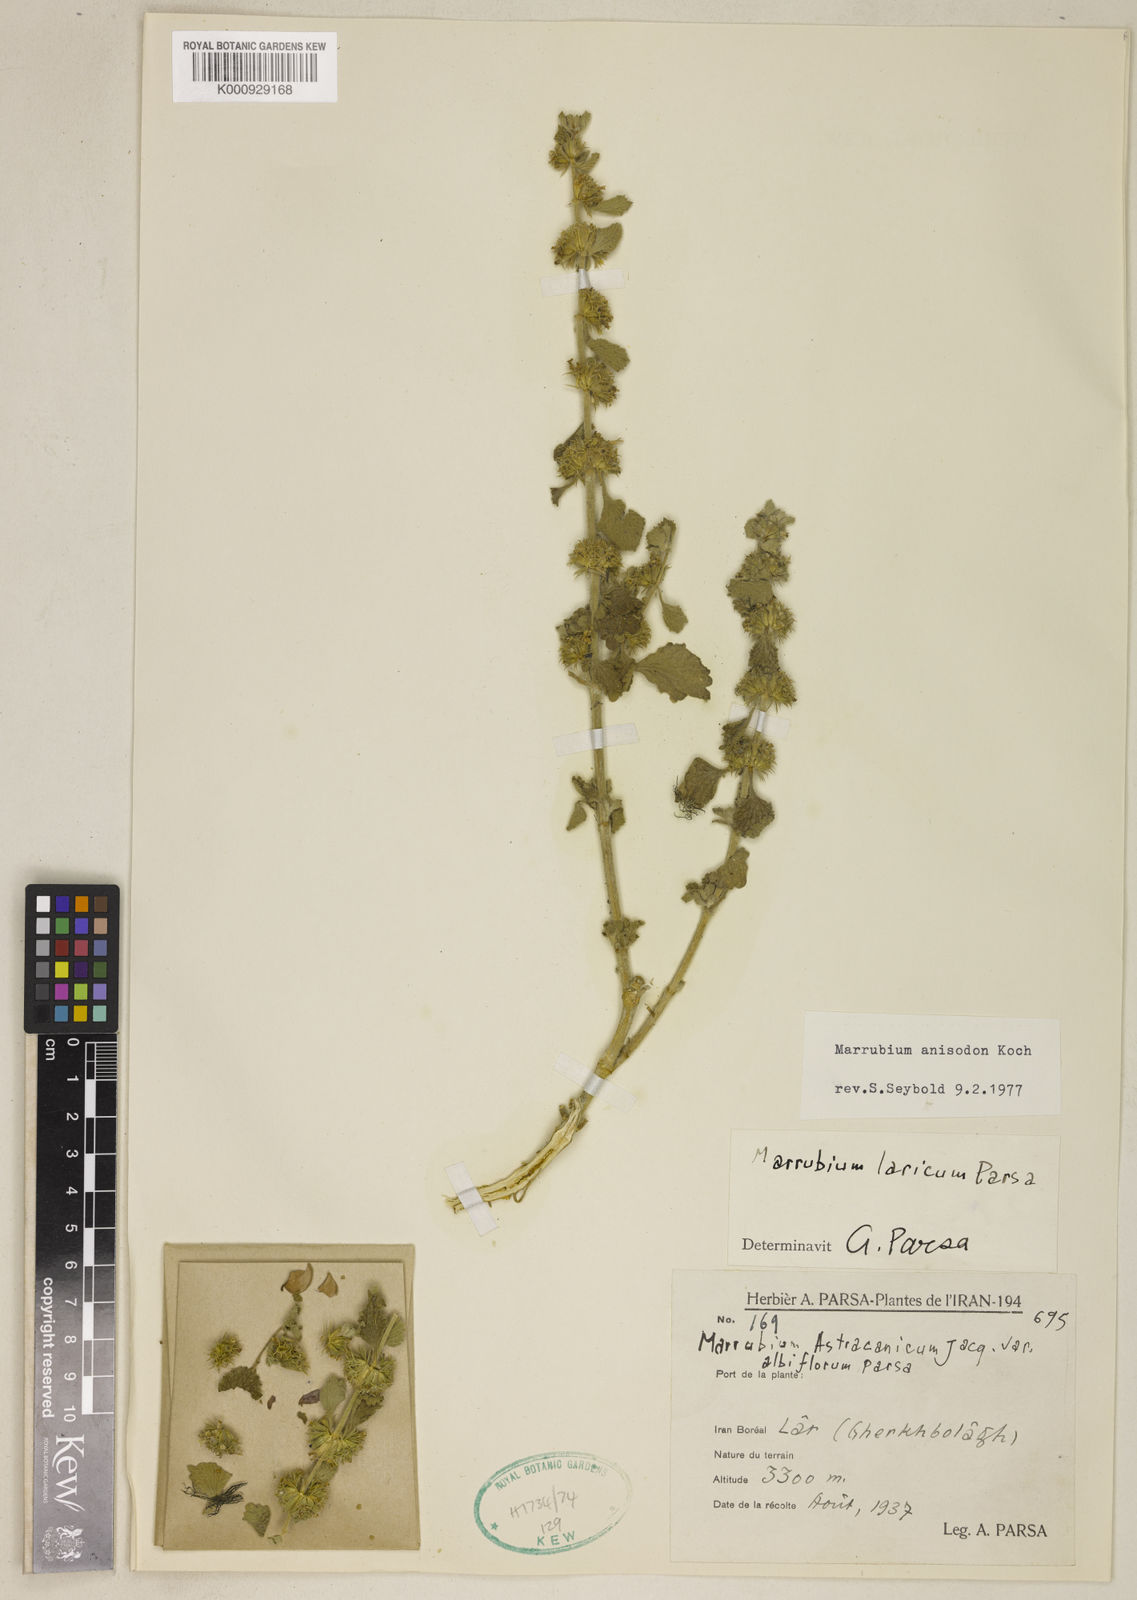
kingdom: Plantae
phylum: Tracheophyta
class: Magnoliopsida
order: Lamiales
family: Lamiaceae
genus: Marrubium
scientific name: Marrubium anisodon
